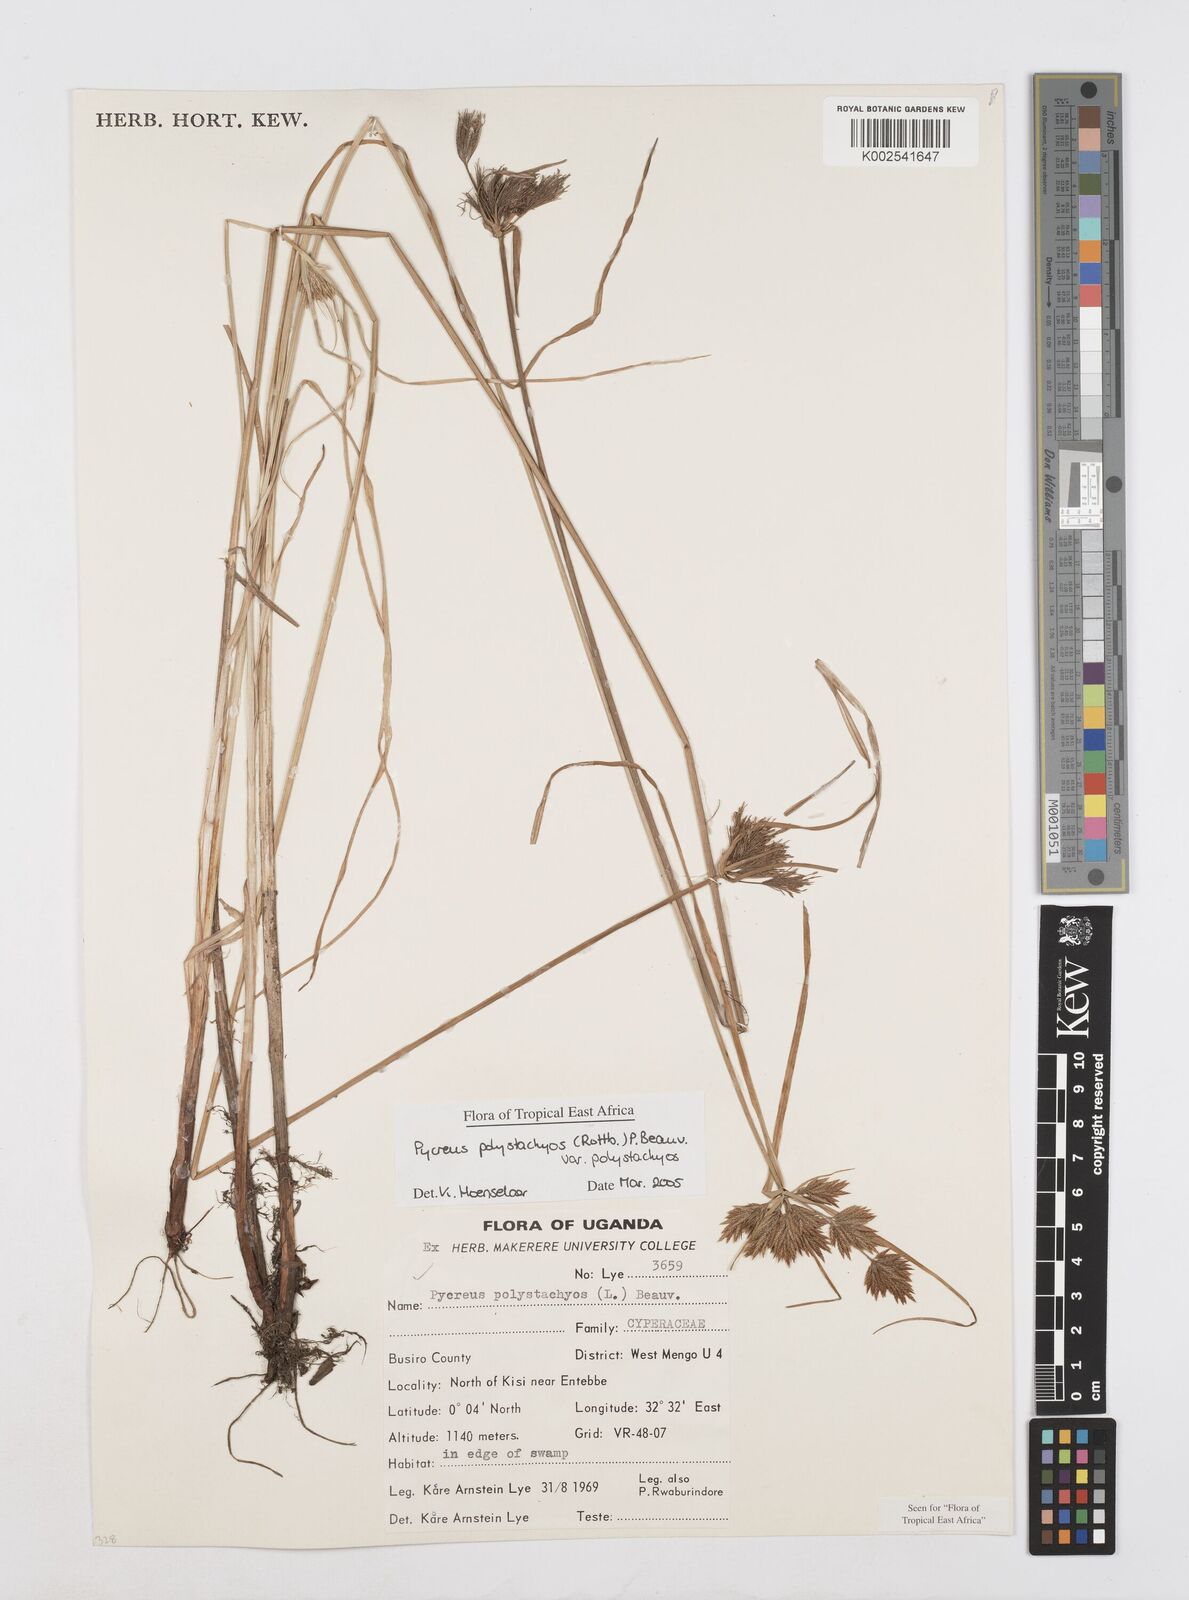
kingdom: Plantae
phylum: Tracheophyta
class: Liliopsida
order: Poales
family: Cyperaceae
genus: Cyperus
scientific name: Cyperus polystachyos
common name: Bunchy flat sedge
